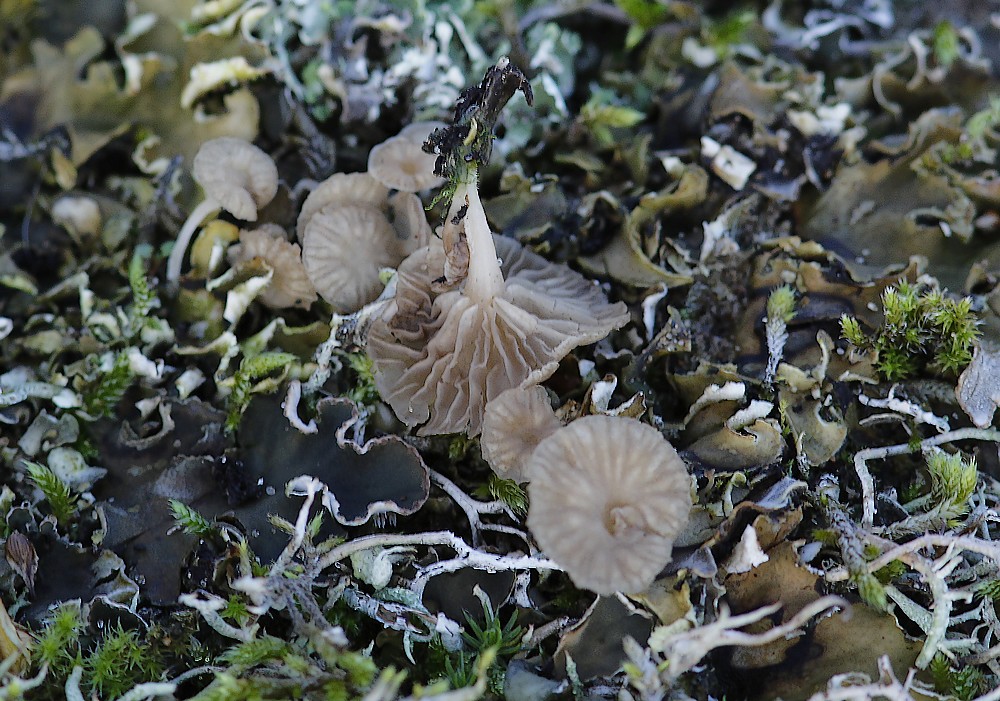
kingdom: Fungi
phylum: Basidiomycota
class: Agaricomycetes
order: Agaricales
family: Hygrophoraceae
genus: Arrhenia
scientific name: Arrhenia peltigerina
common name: skjoldlav-fontænehat
